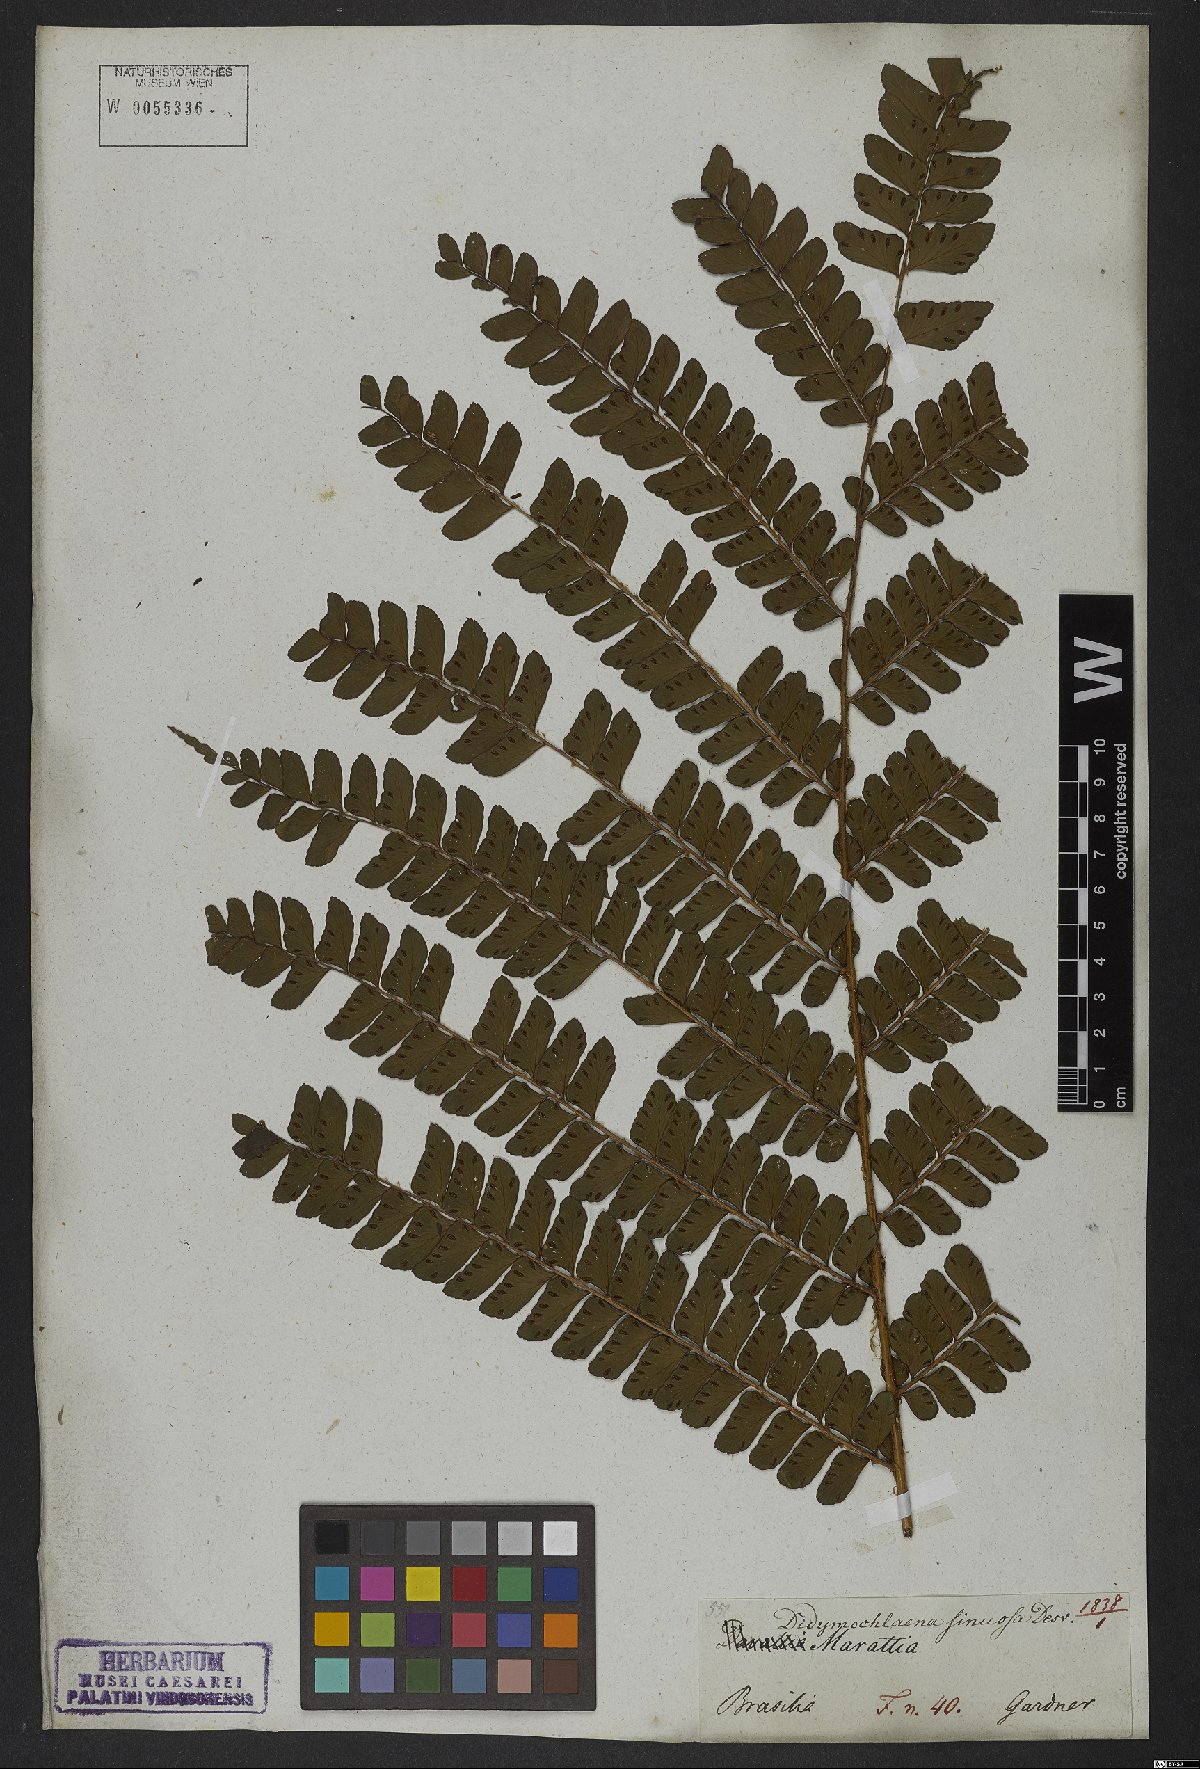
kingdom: Plantae
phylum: Tracheophyta
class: Polypodiopsida
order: Polypodiales
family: Didymochlaenaceae
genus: Didymochlaena
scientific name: Didymochlaena truncatula
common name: Mahogany fern
